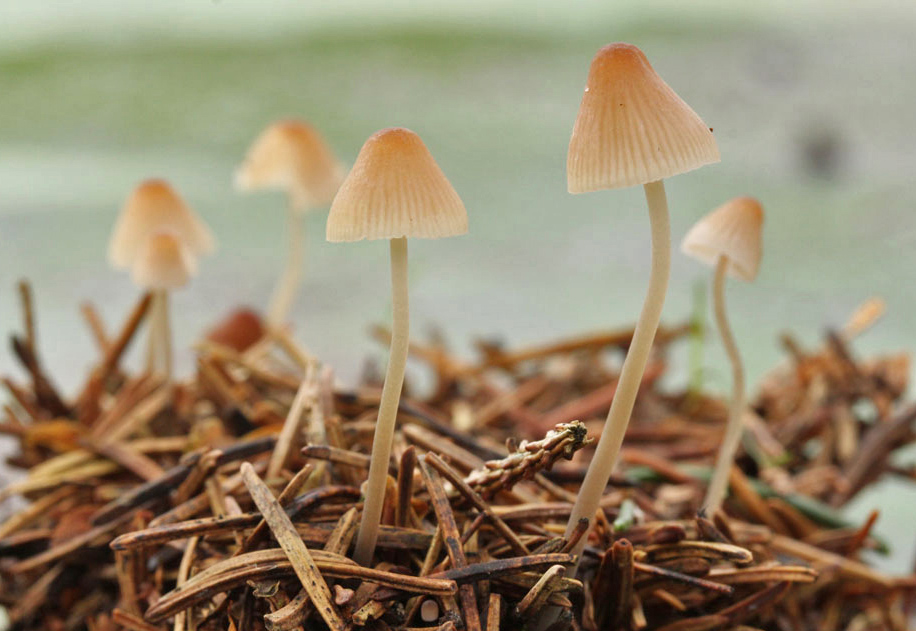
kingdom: Fungi
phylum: Basidiomycota
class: Agaricomycetes
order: Agaricales
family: Mycenaceae
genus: Mycena
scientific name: Mycena metata
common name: rødlig huesvamp
